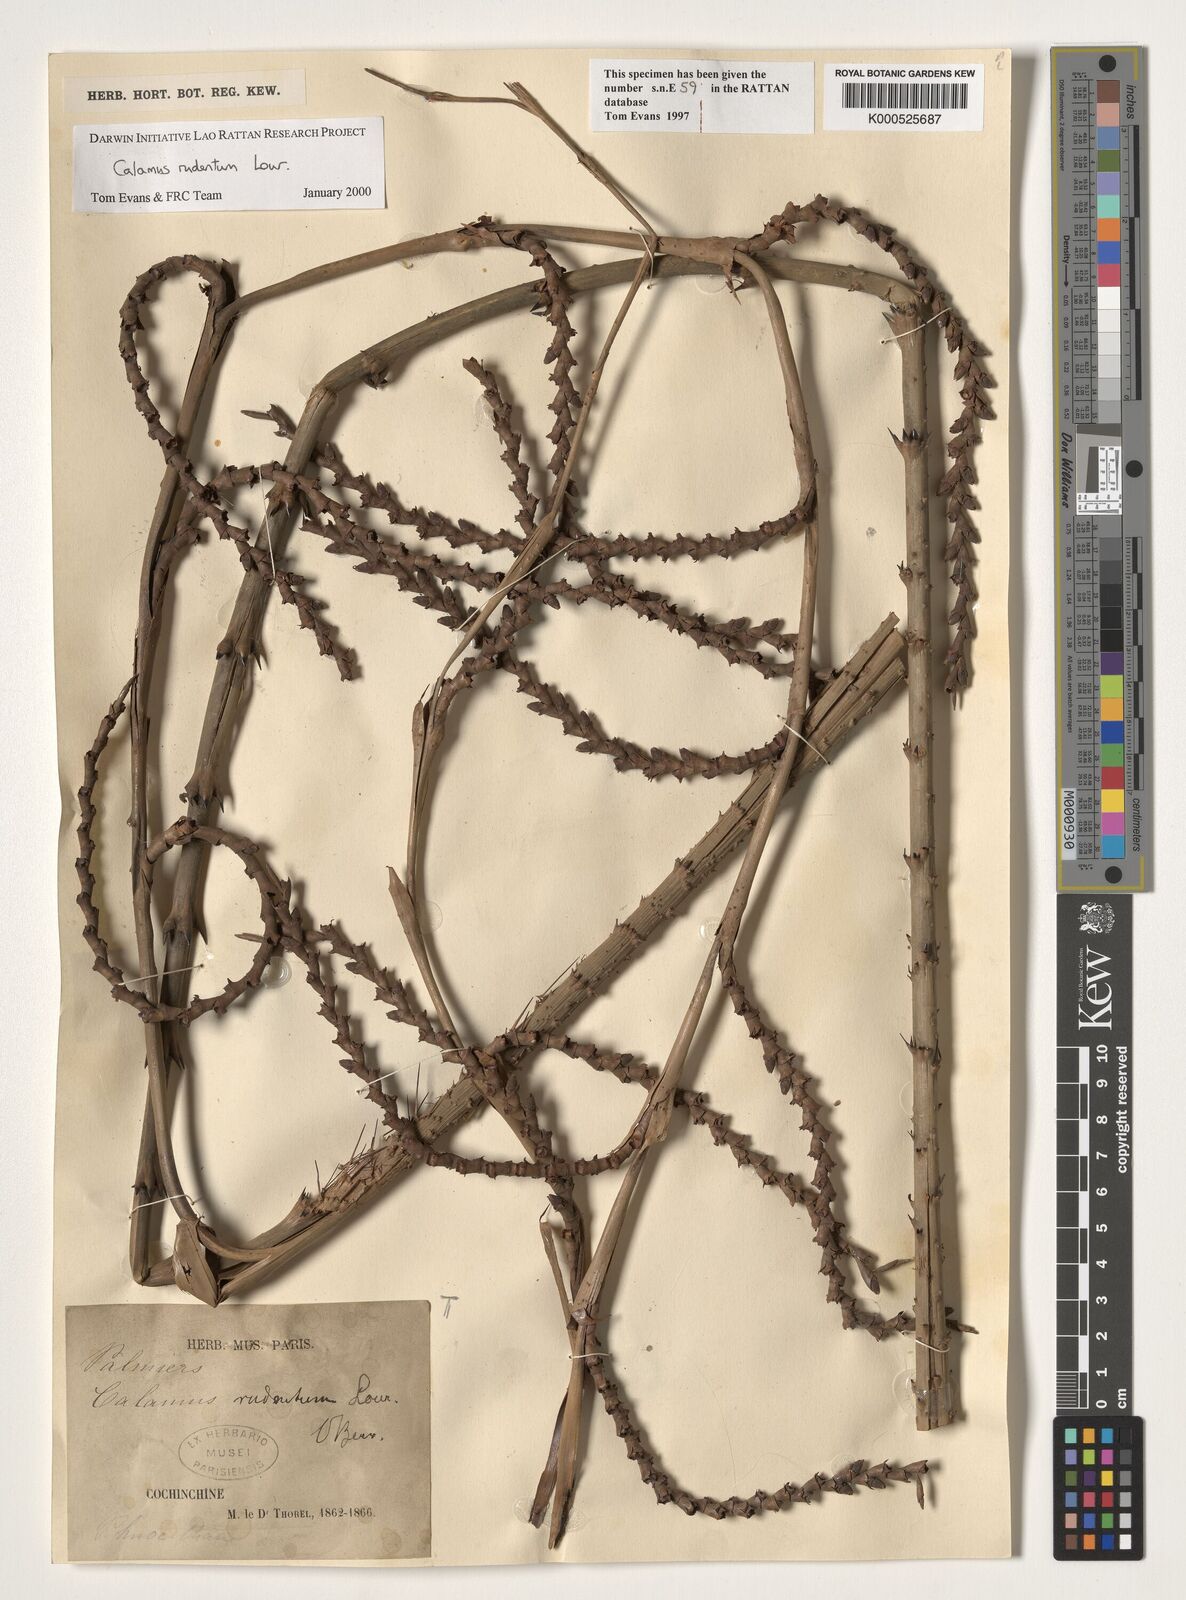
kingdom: Plantae
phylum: Tracheophyta
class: Liliopsida
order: Arecales
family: Arecaceae
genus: Calamus
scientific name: Calamus rudentum
